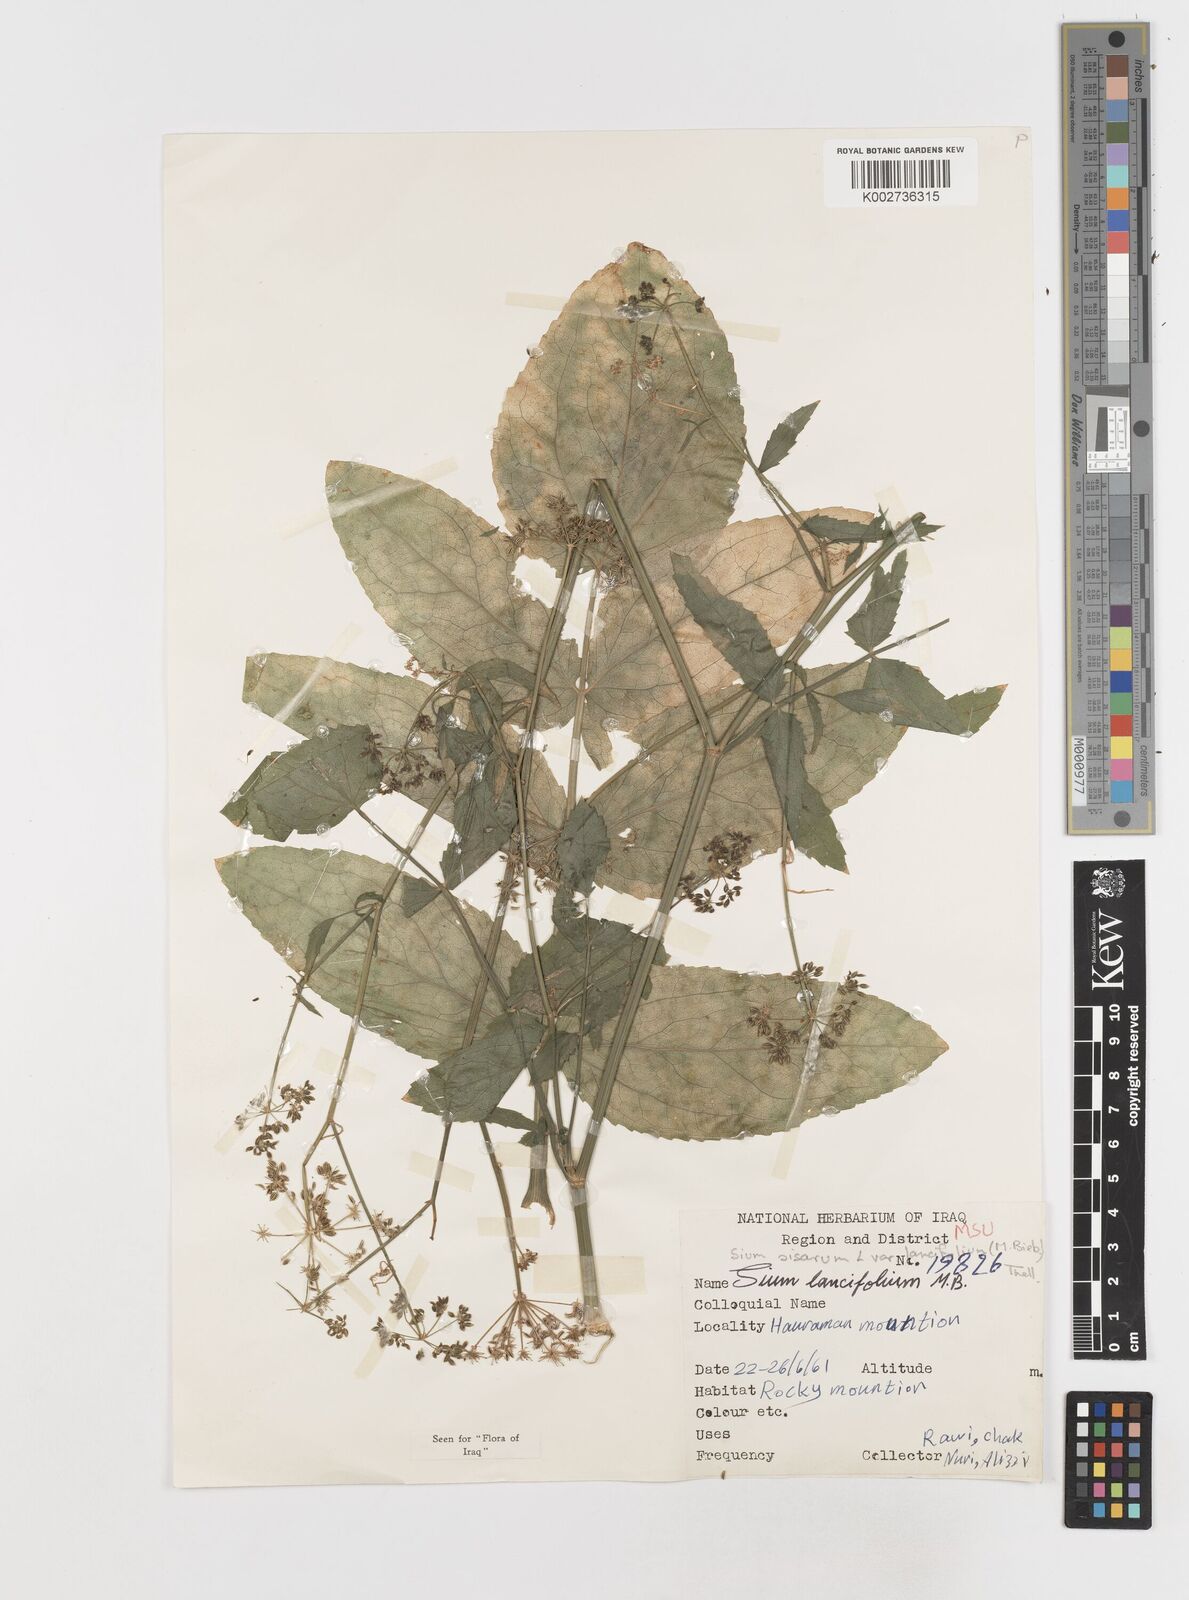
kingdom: Plantae
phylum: Tracheophyta
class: Magnoliopsida
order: Apiales
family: Apiaceae
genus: Sium
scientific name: Sium sisarum
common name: Skirret
